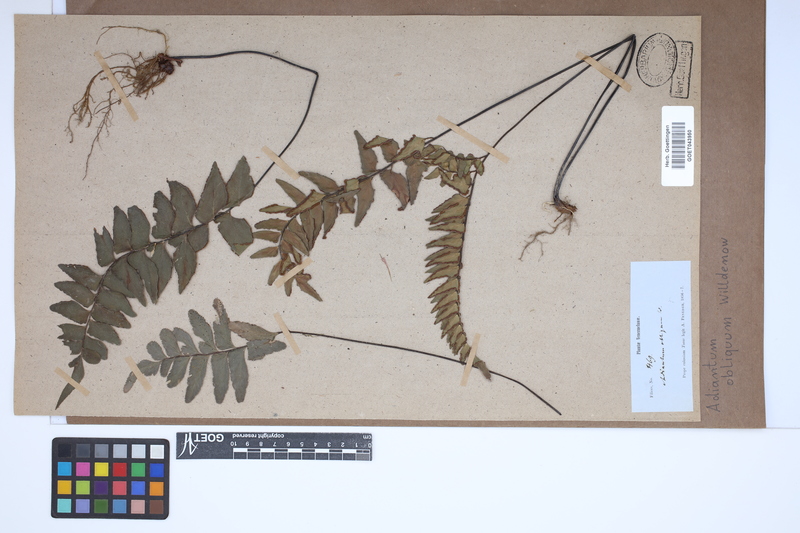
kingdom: Plantae
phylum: Tracheophyta
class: Polypodiopsida
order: Polypodiales
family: Pteridaceae
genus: Adiantum
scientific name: Adiantum macrophyllum
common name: Largeleaf maidenhair
